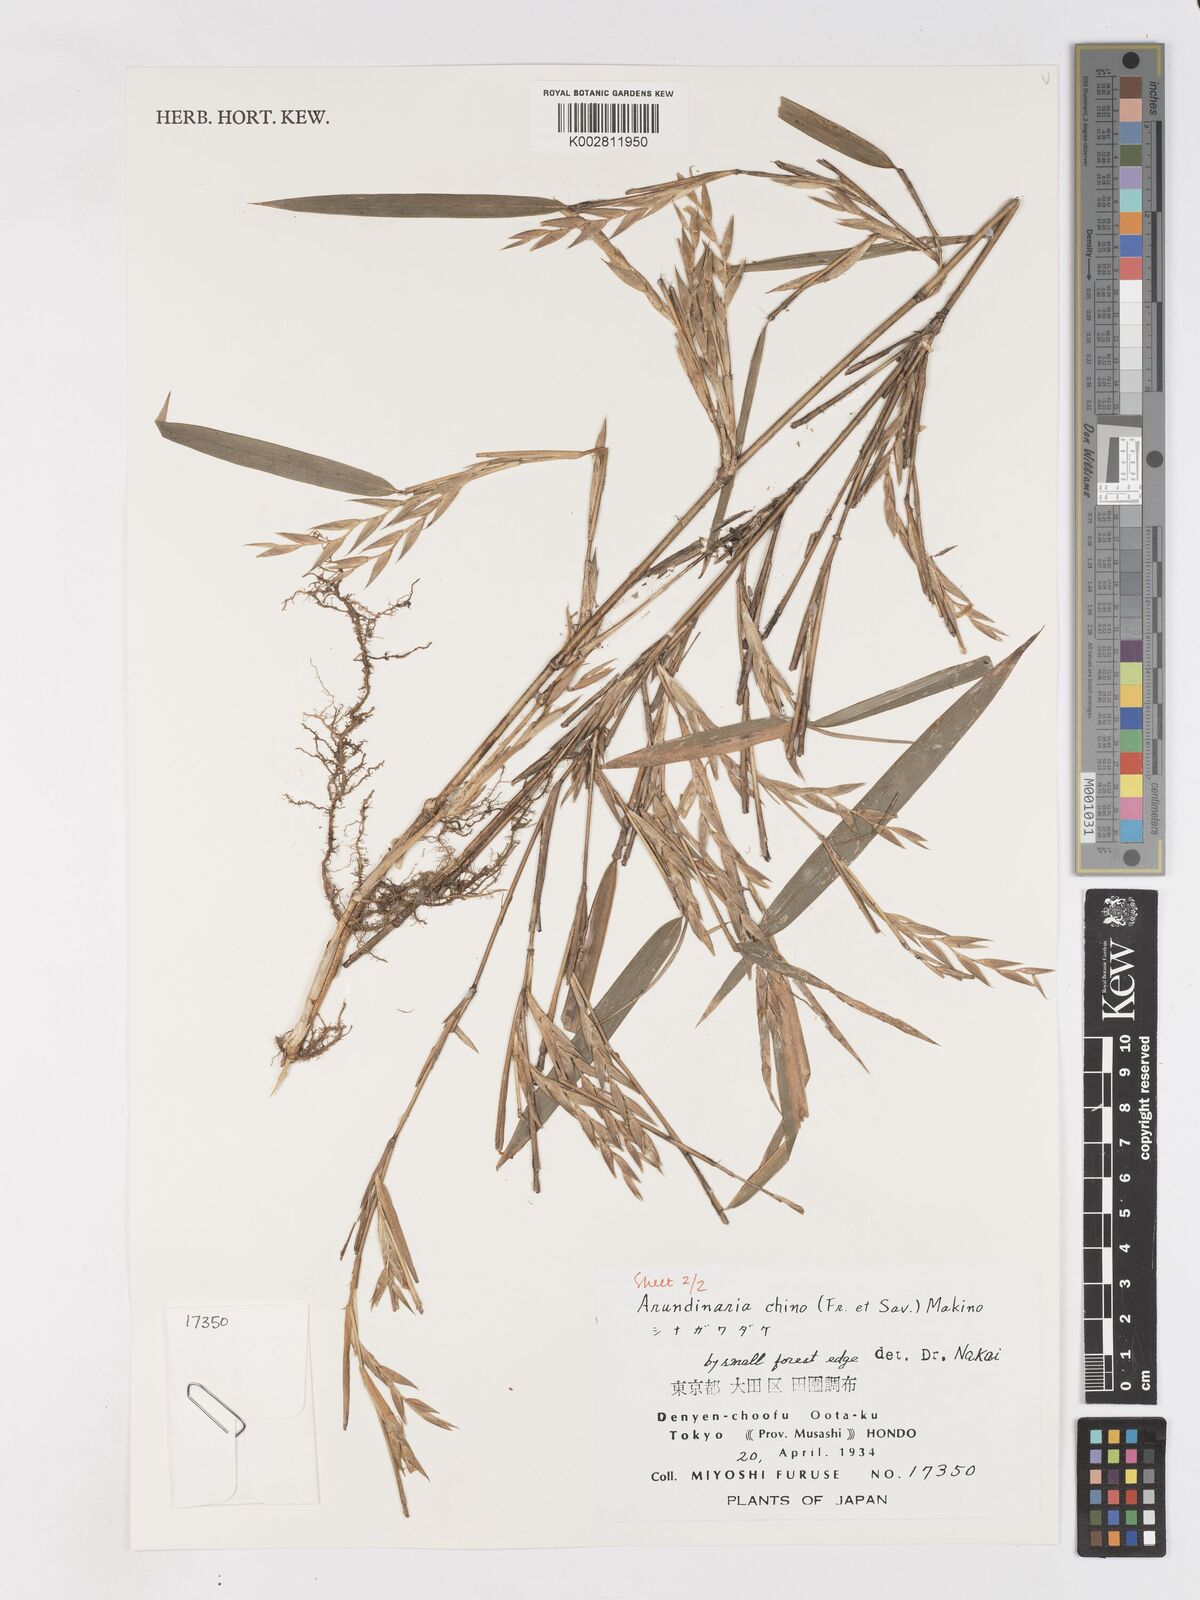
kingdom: Plantae
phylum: Tracheophyta
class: Liliopsida
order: Poales
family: Poaceae
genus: Pleioblastus
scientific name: Pleioblastus argenteostriatus
